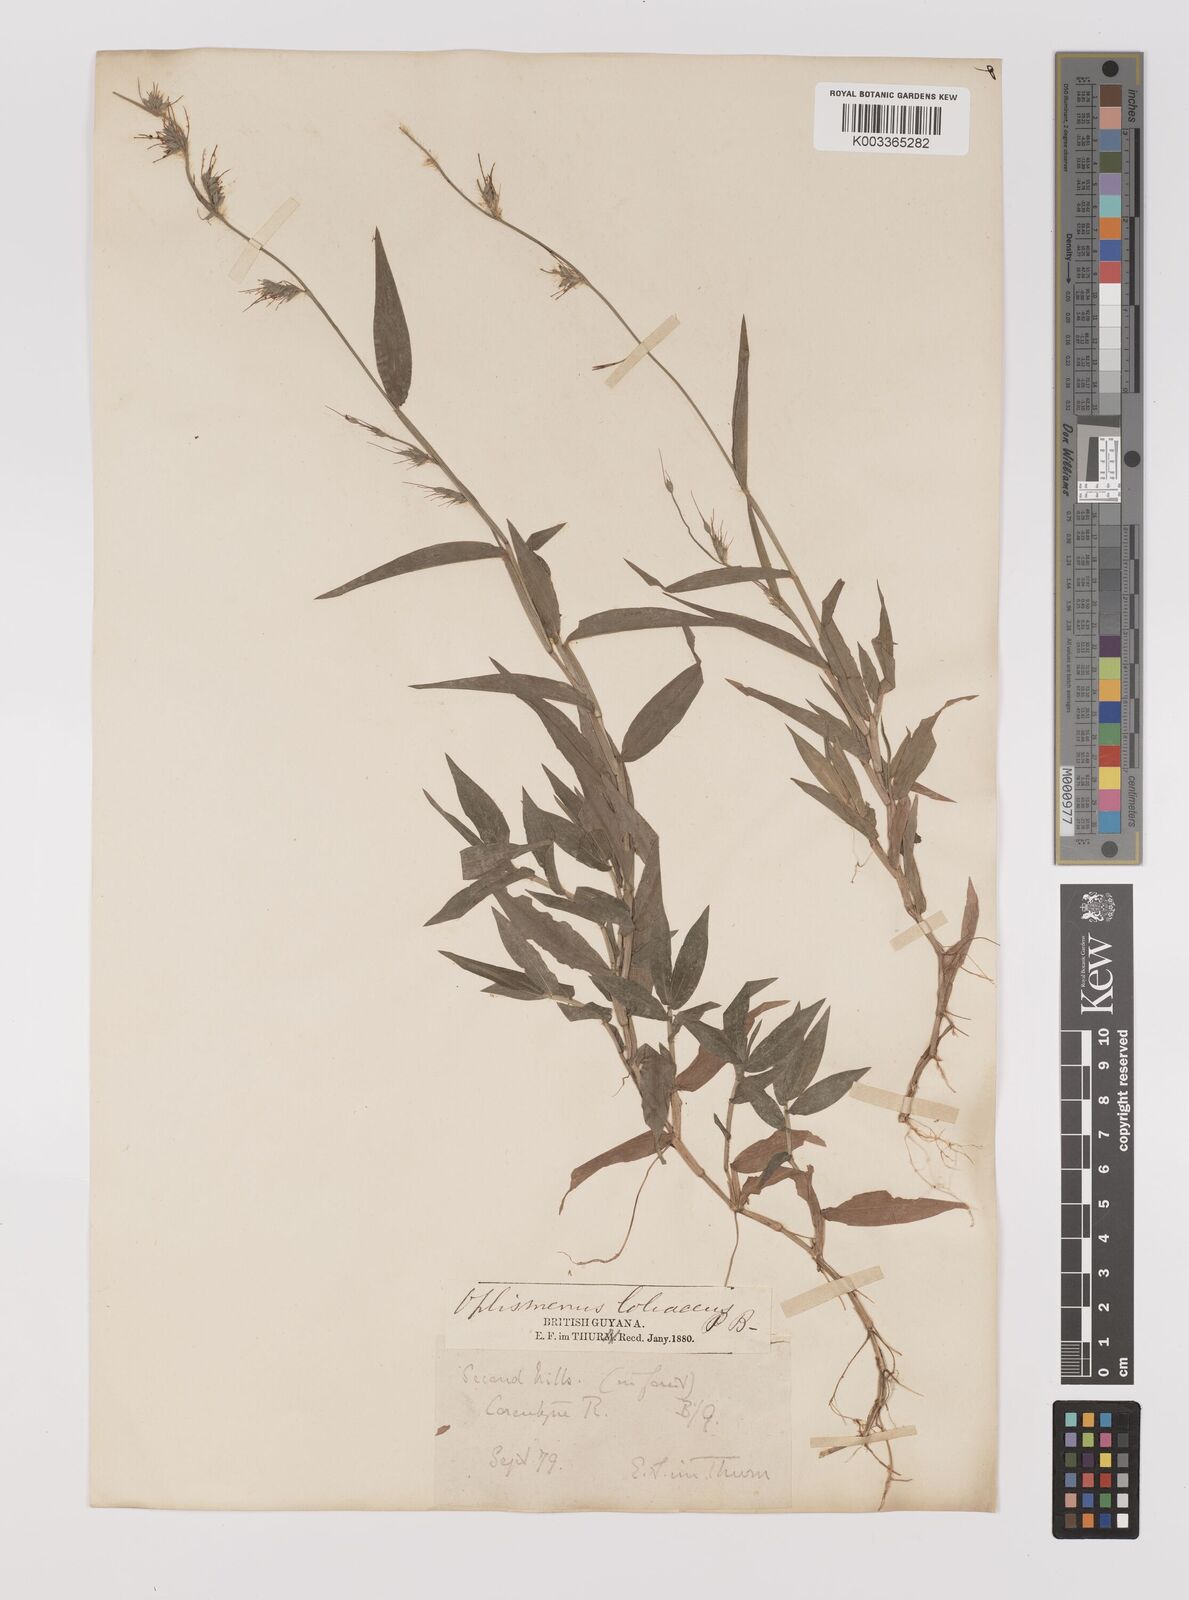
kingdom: Plantae
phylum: Tracheophyta
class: Liliopsida
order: Poales
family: Poaceae
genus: Oplismenus
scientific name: Oplismenus hirtellus
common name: Basketgrass
